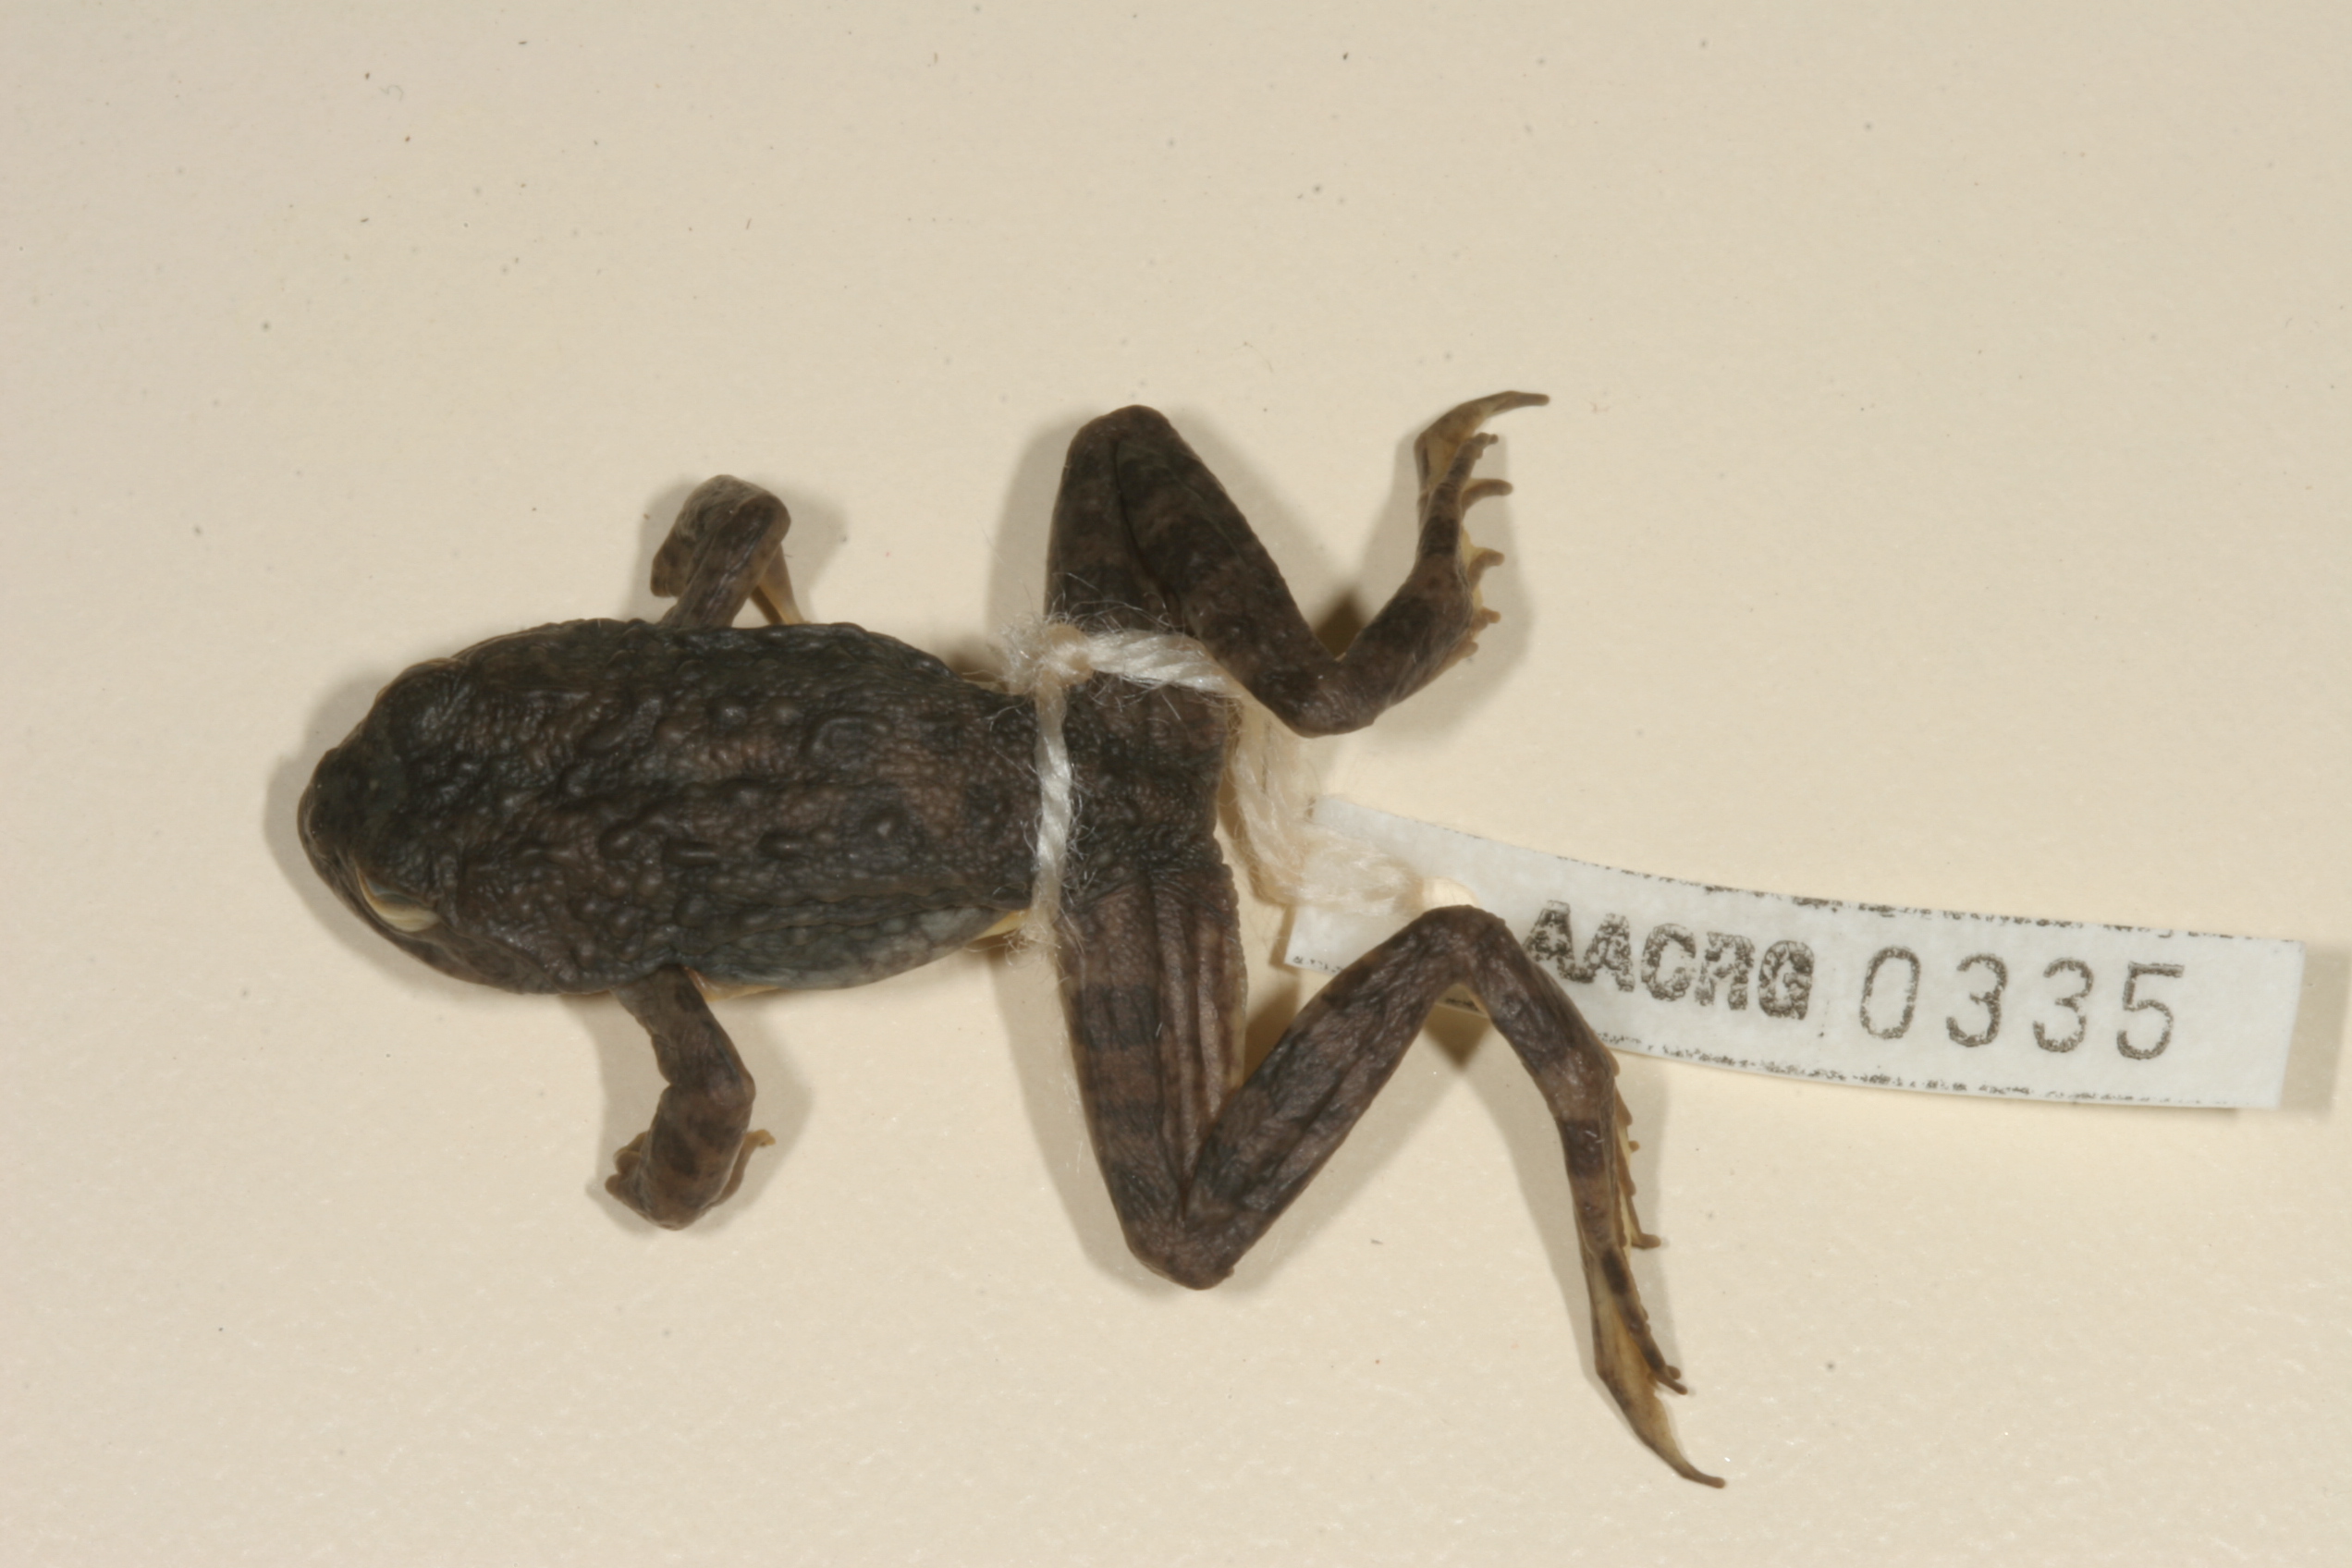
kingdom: Animalia
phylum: Chordata
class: Amphibia
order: Anura
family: Pyxicephalidae
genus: Amietia
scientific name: Amietia vertebralis
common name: Drakensberg stream frog
